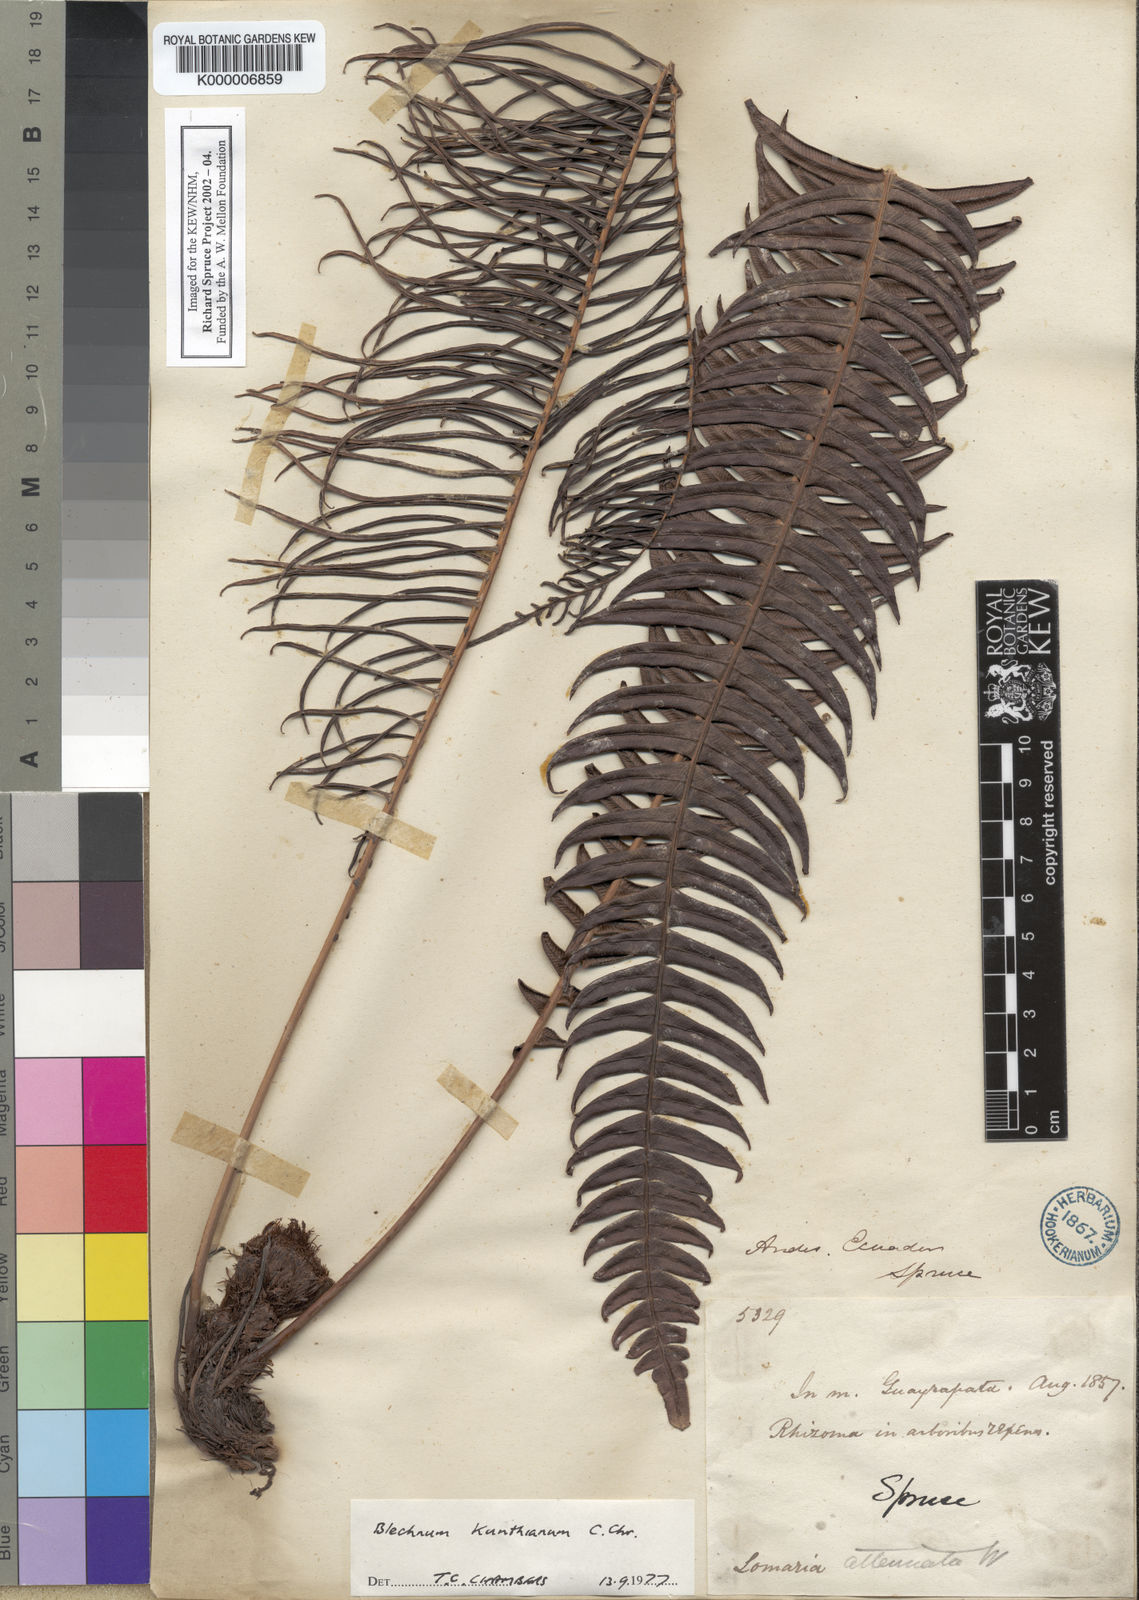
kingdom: Plantae
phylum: Tracheophyta
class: Polypodiopsida
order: Polypodiales
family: Blechnaceae
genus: Lomaridium
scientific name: Lomaridium acutum
